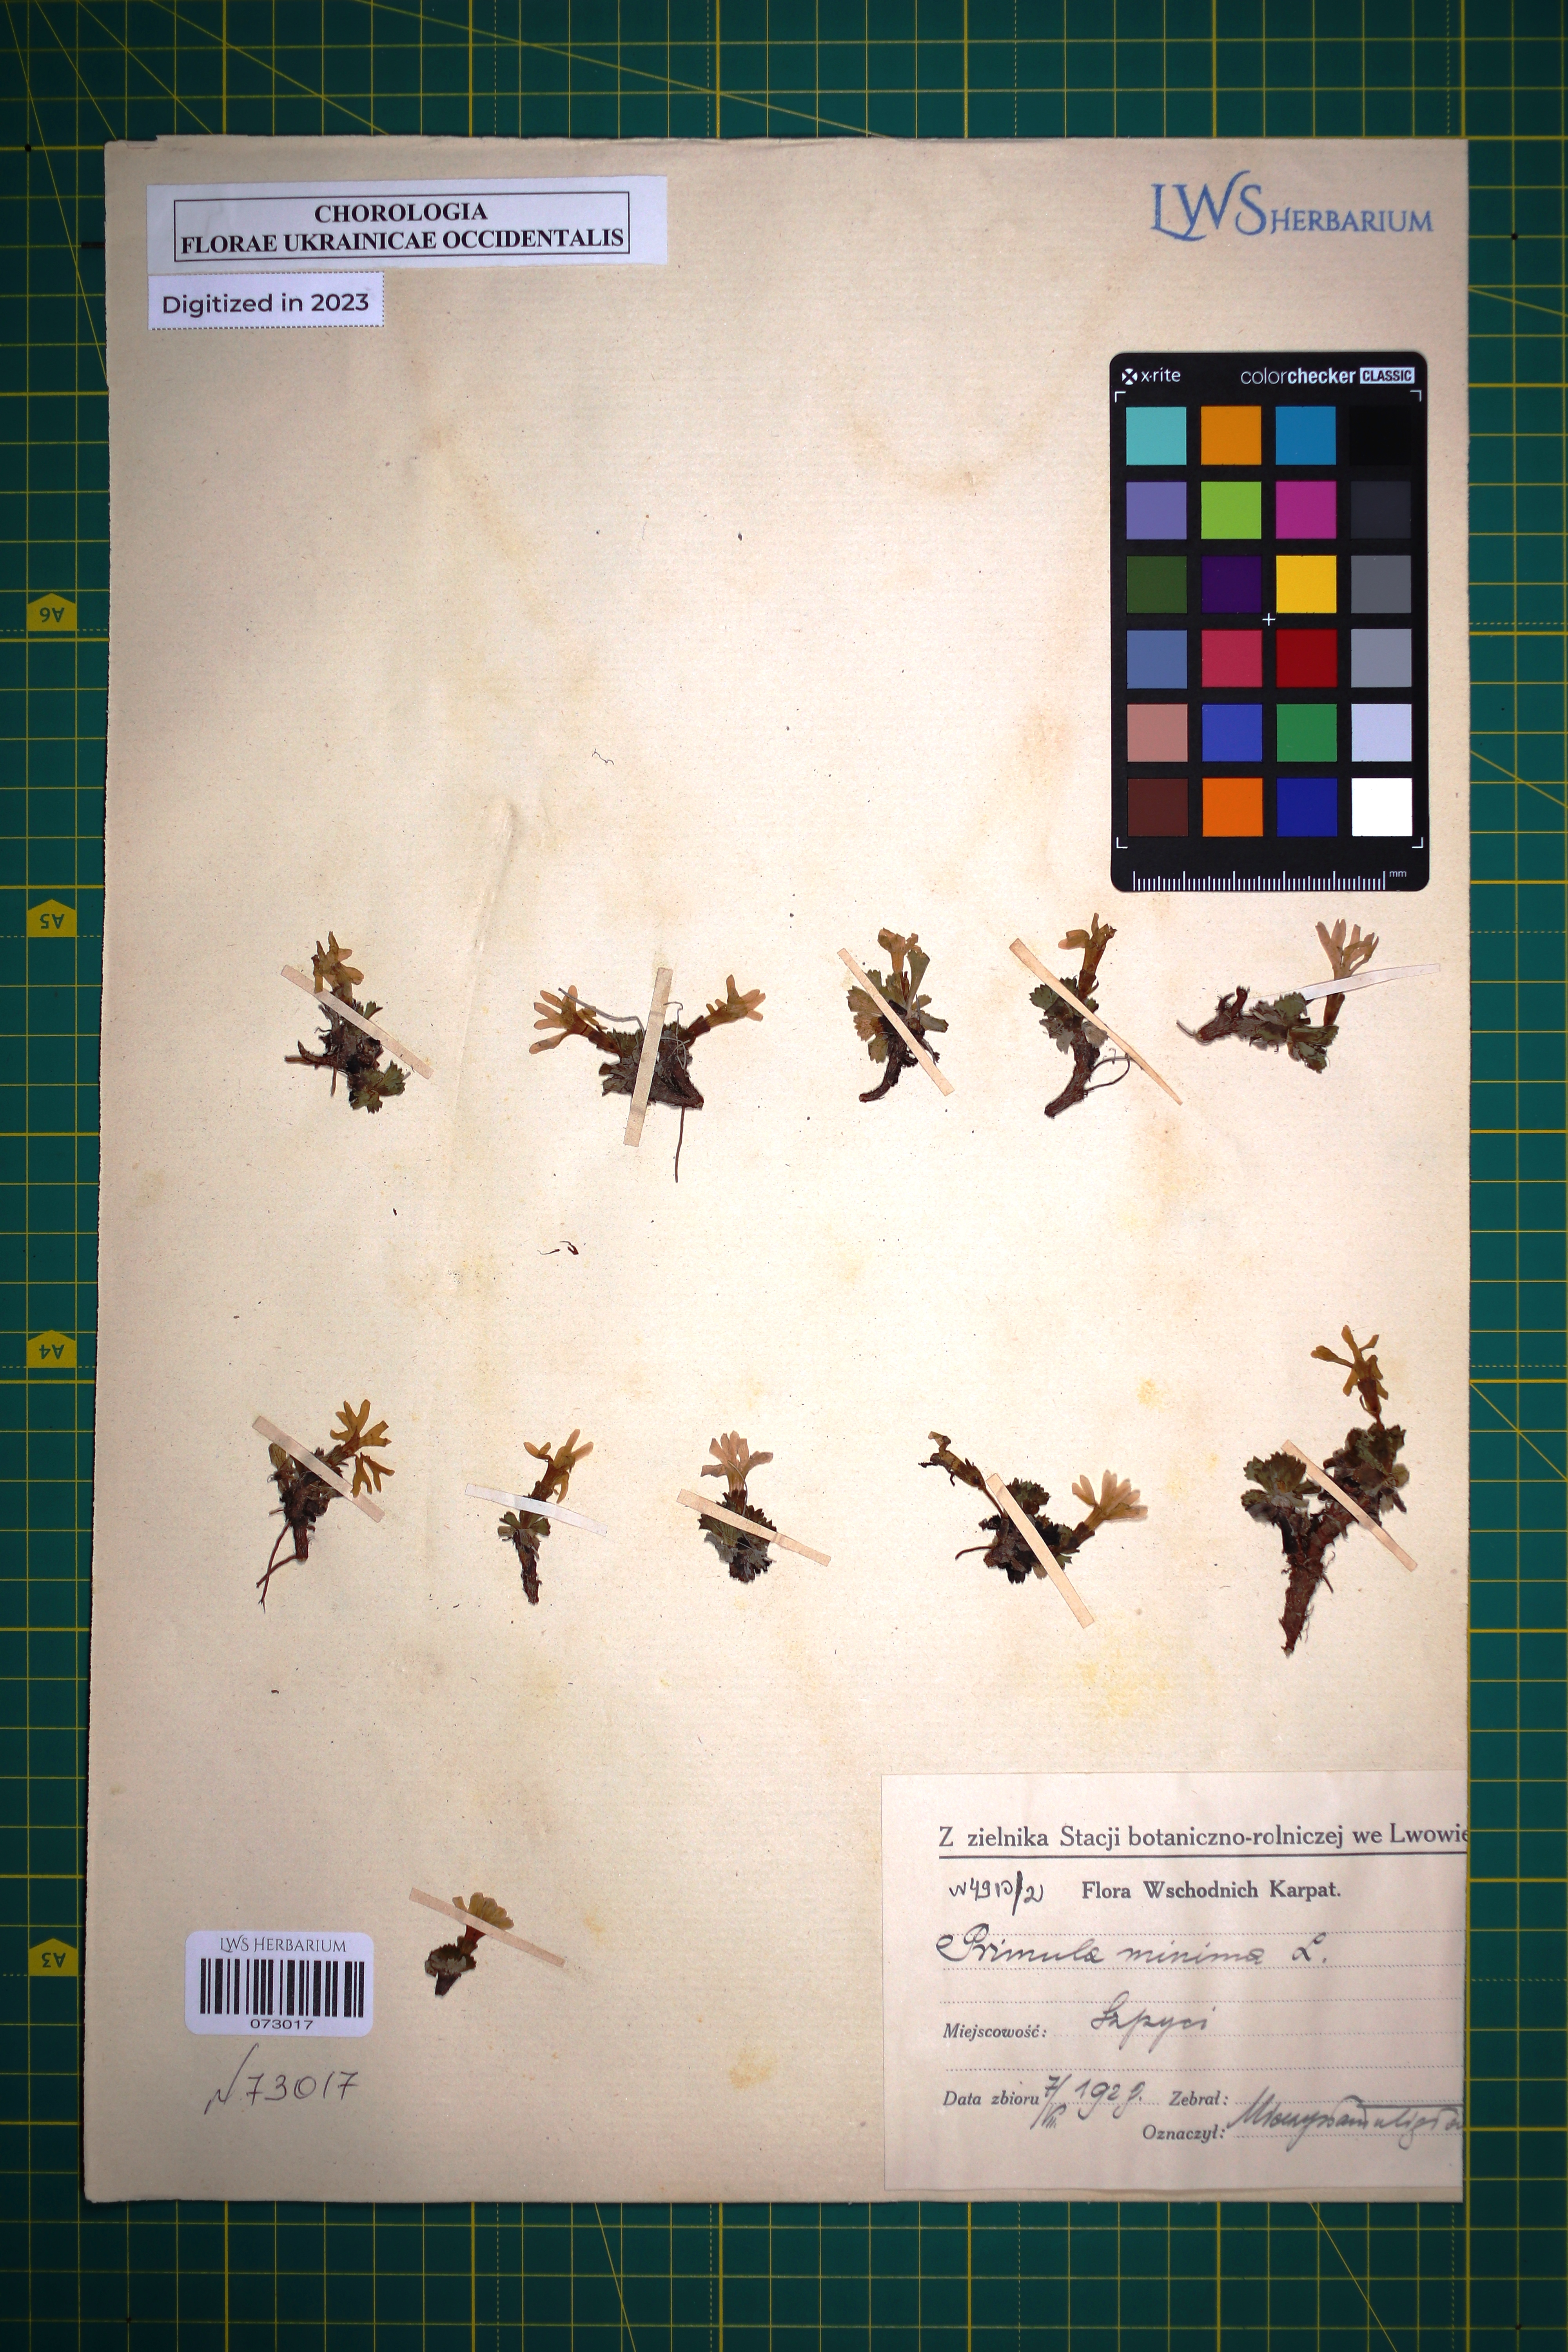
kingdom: Plantae
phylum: Tracheophyta
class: Magnoliopsida
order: Ericales
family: Primulaceae
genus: Primula
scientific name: Primula minima
